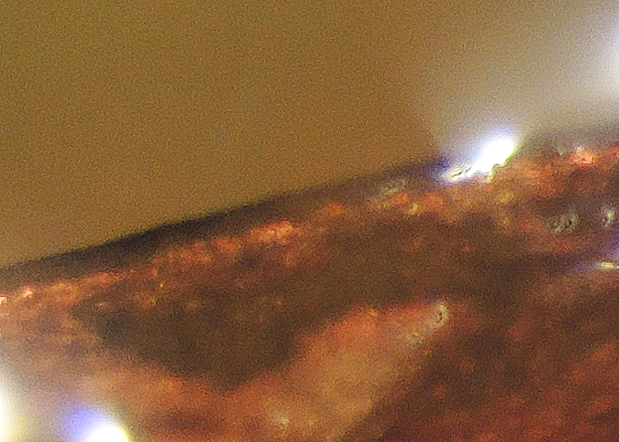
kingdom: Fungi
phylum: Basidiomycota
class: Agaricomycetes
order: Gomphales
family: Lentariaceae
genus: Lentaria
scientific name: Lentaria subcaulescens
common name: stor grenkølle
